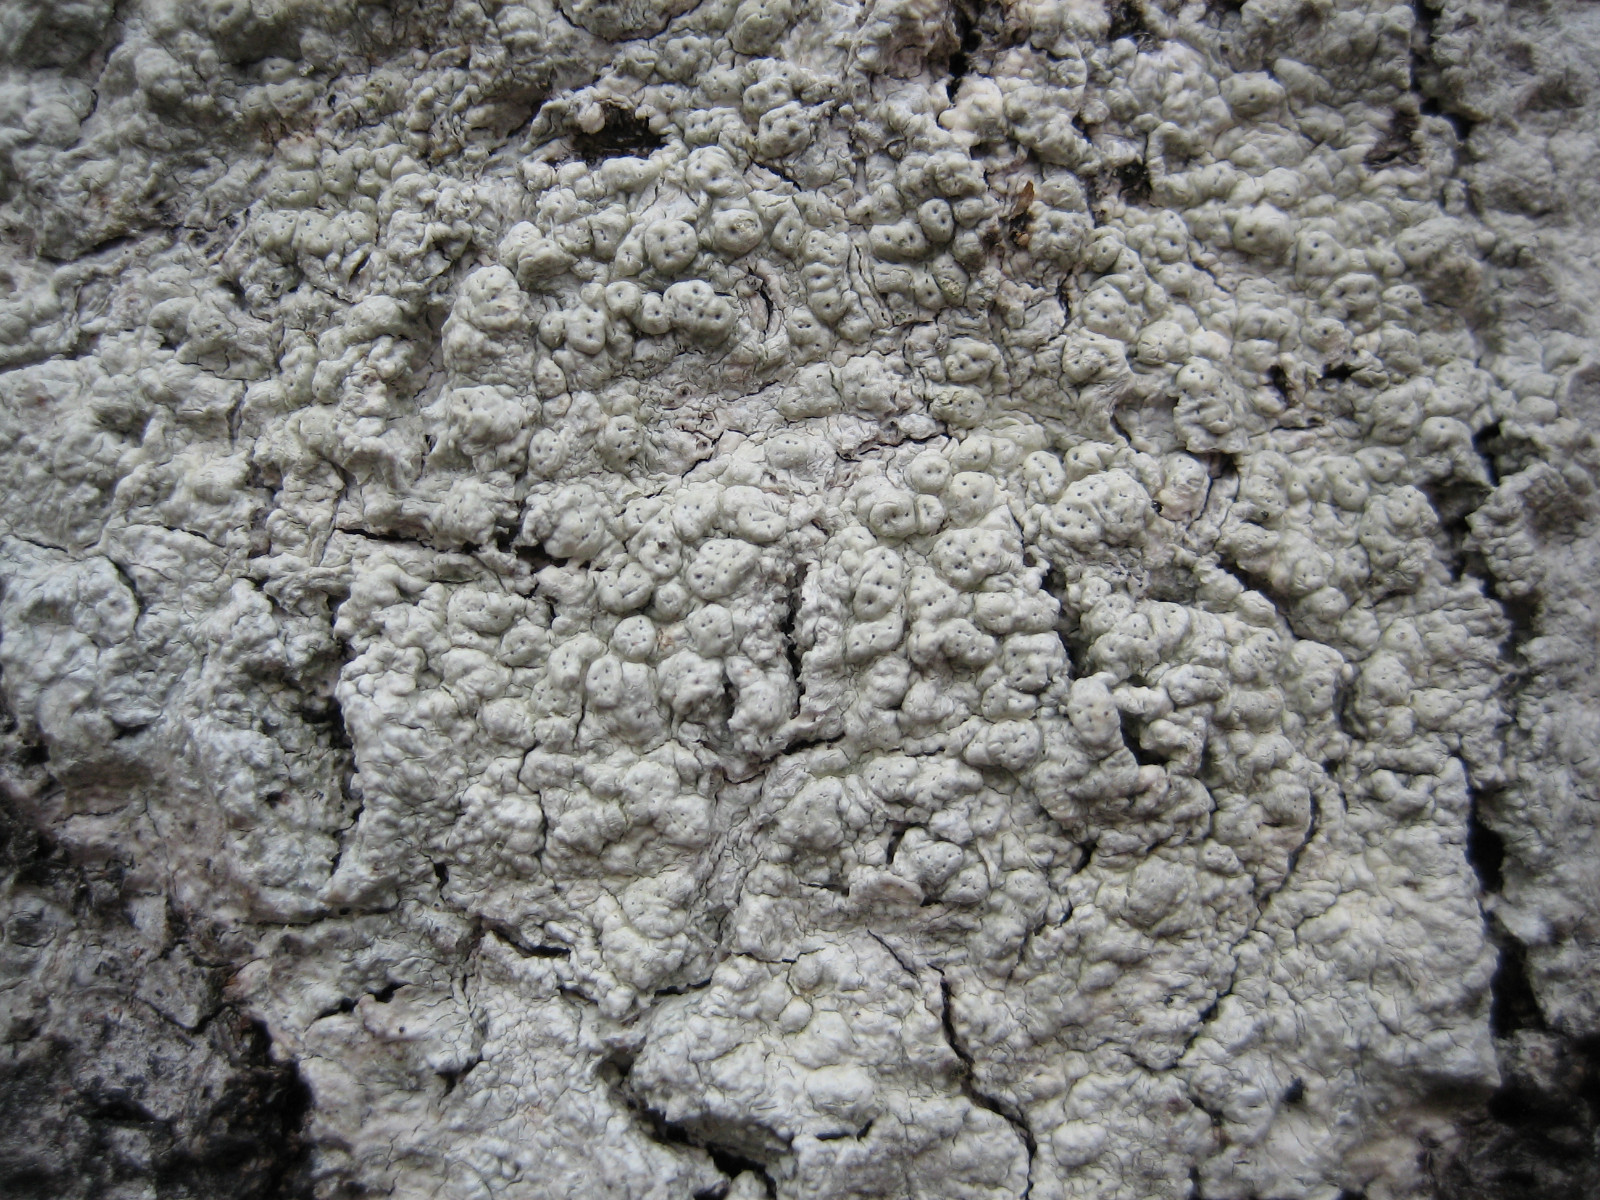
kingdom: Fungi
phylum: Ascomycota
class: Lecanoromycetes
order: Pertusariales
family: Pertusariaceae
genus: Pertusaria
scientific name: Pertusaria pertusa
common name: almindelig prikvortelav
